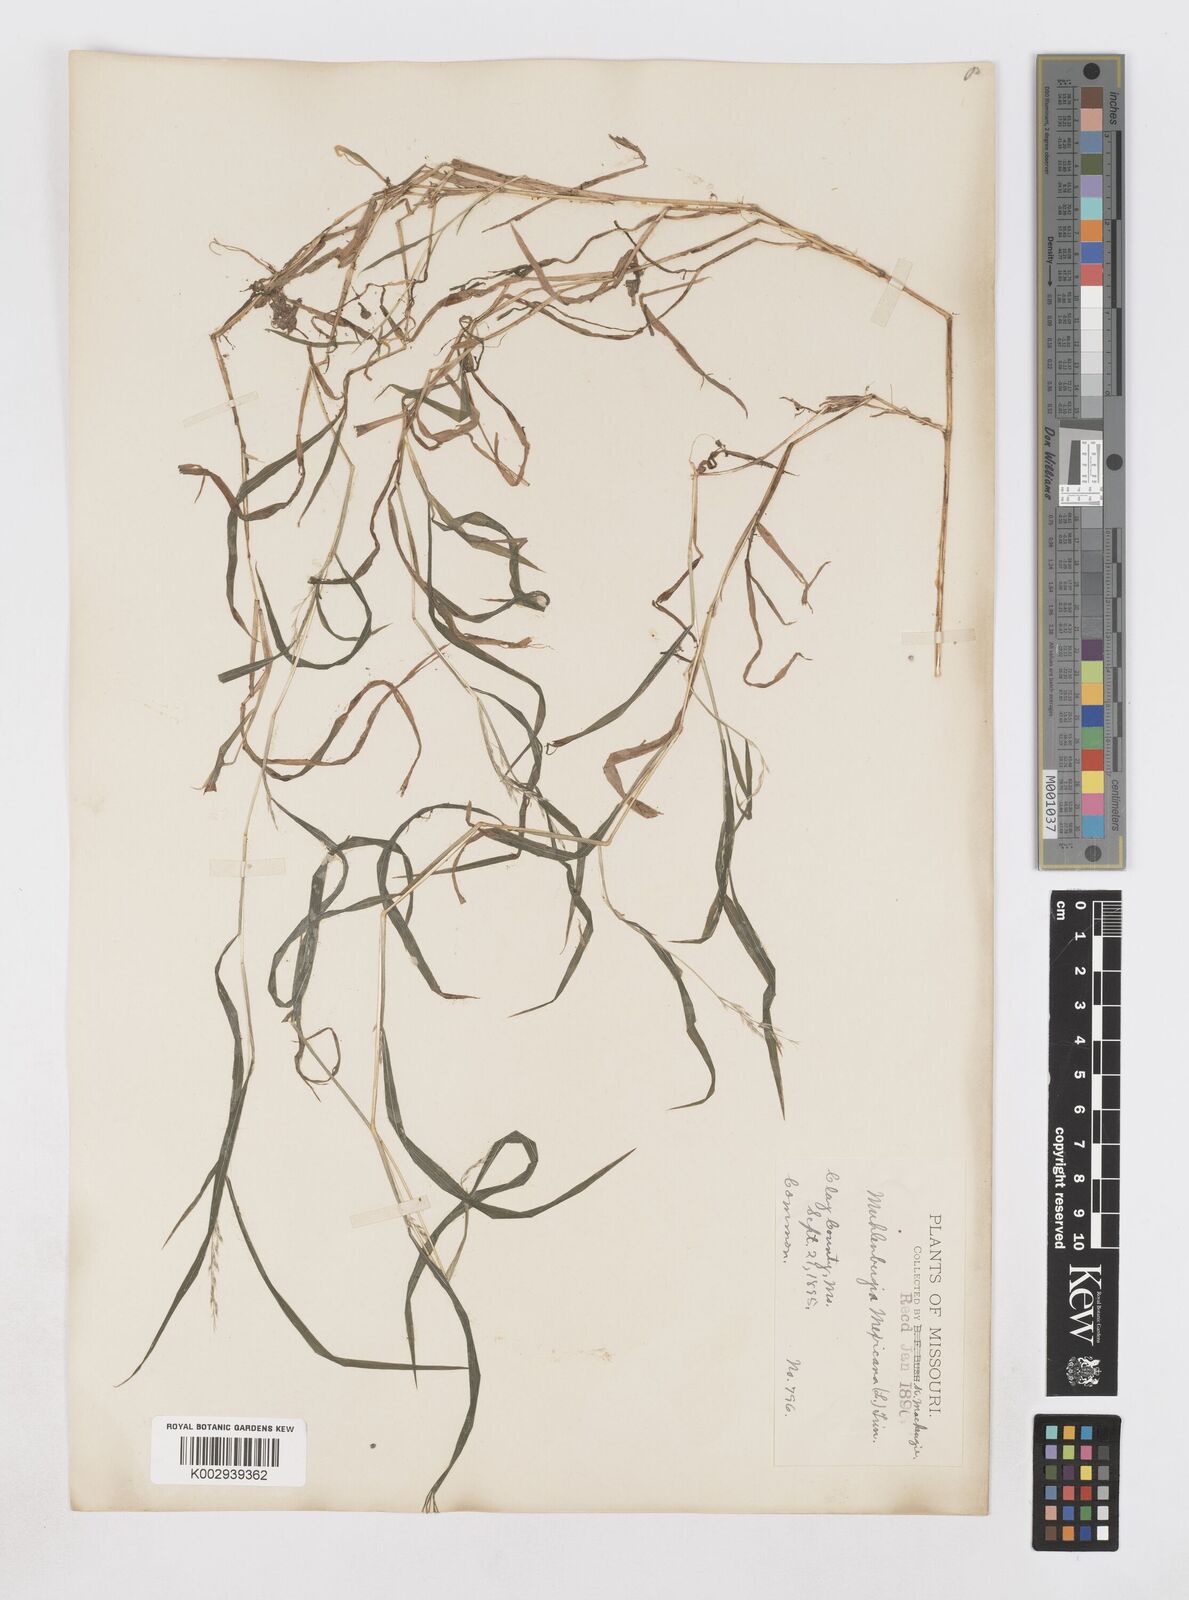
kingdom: Plantae
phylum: Tracheophyta
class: Liliopsida
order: Poales
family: Poaceae
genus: Muhlenbergia
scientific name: Muhlenbergia mexicana
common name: Mexican muhly
